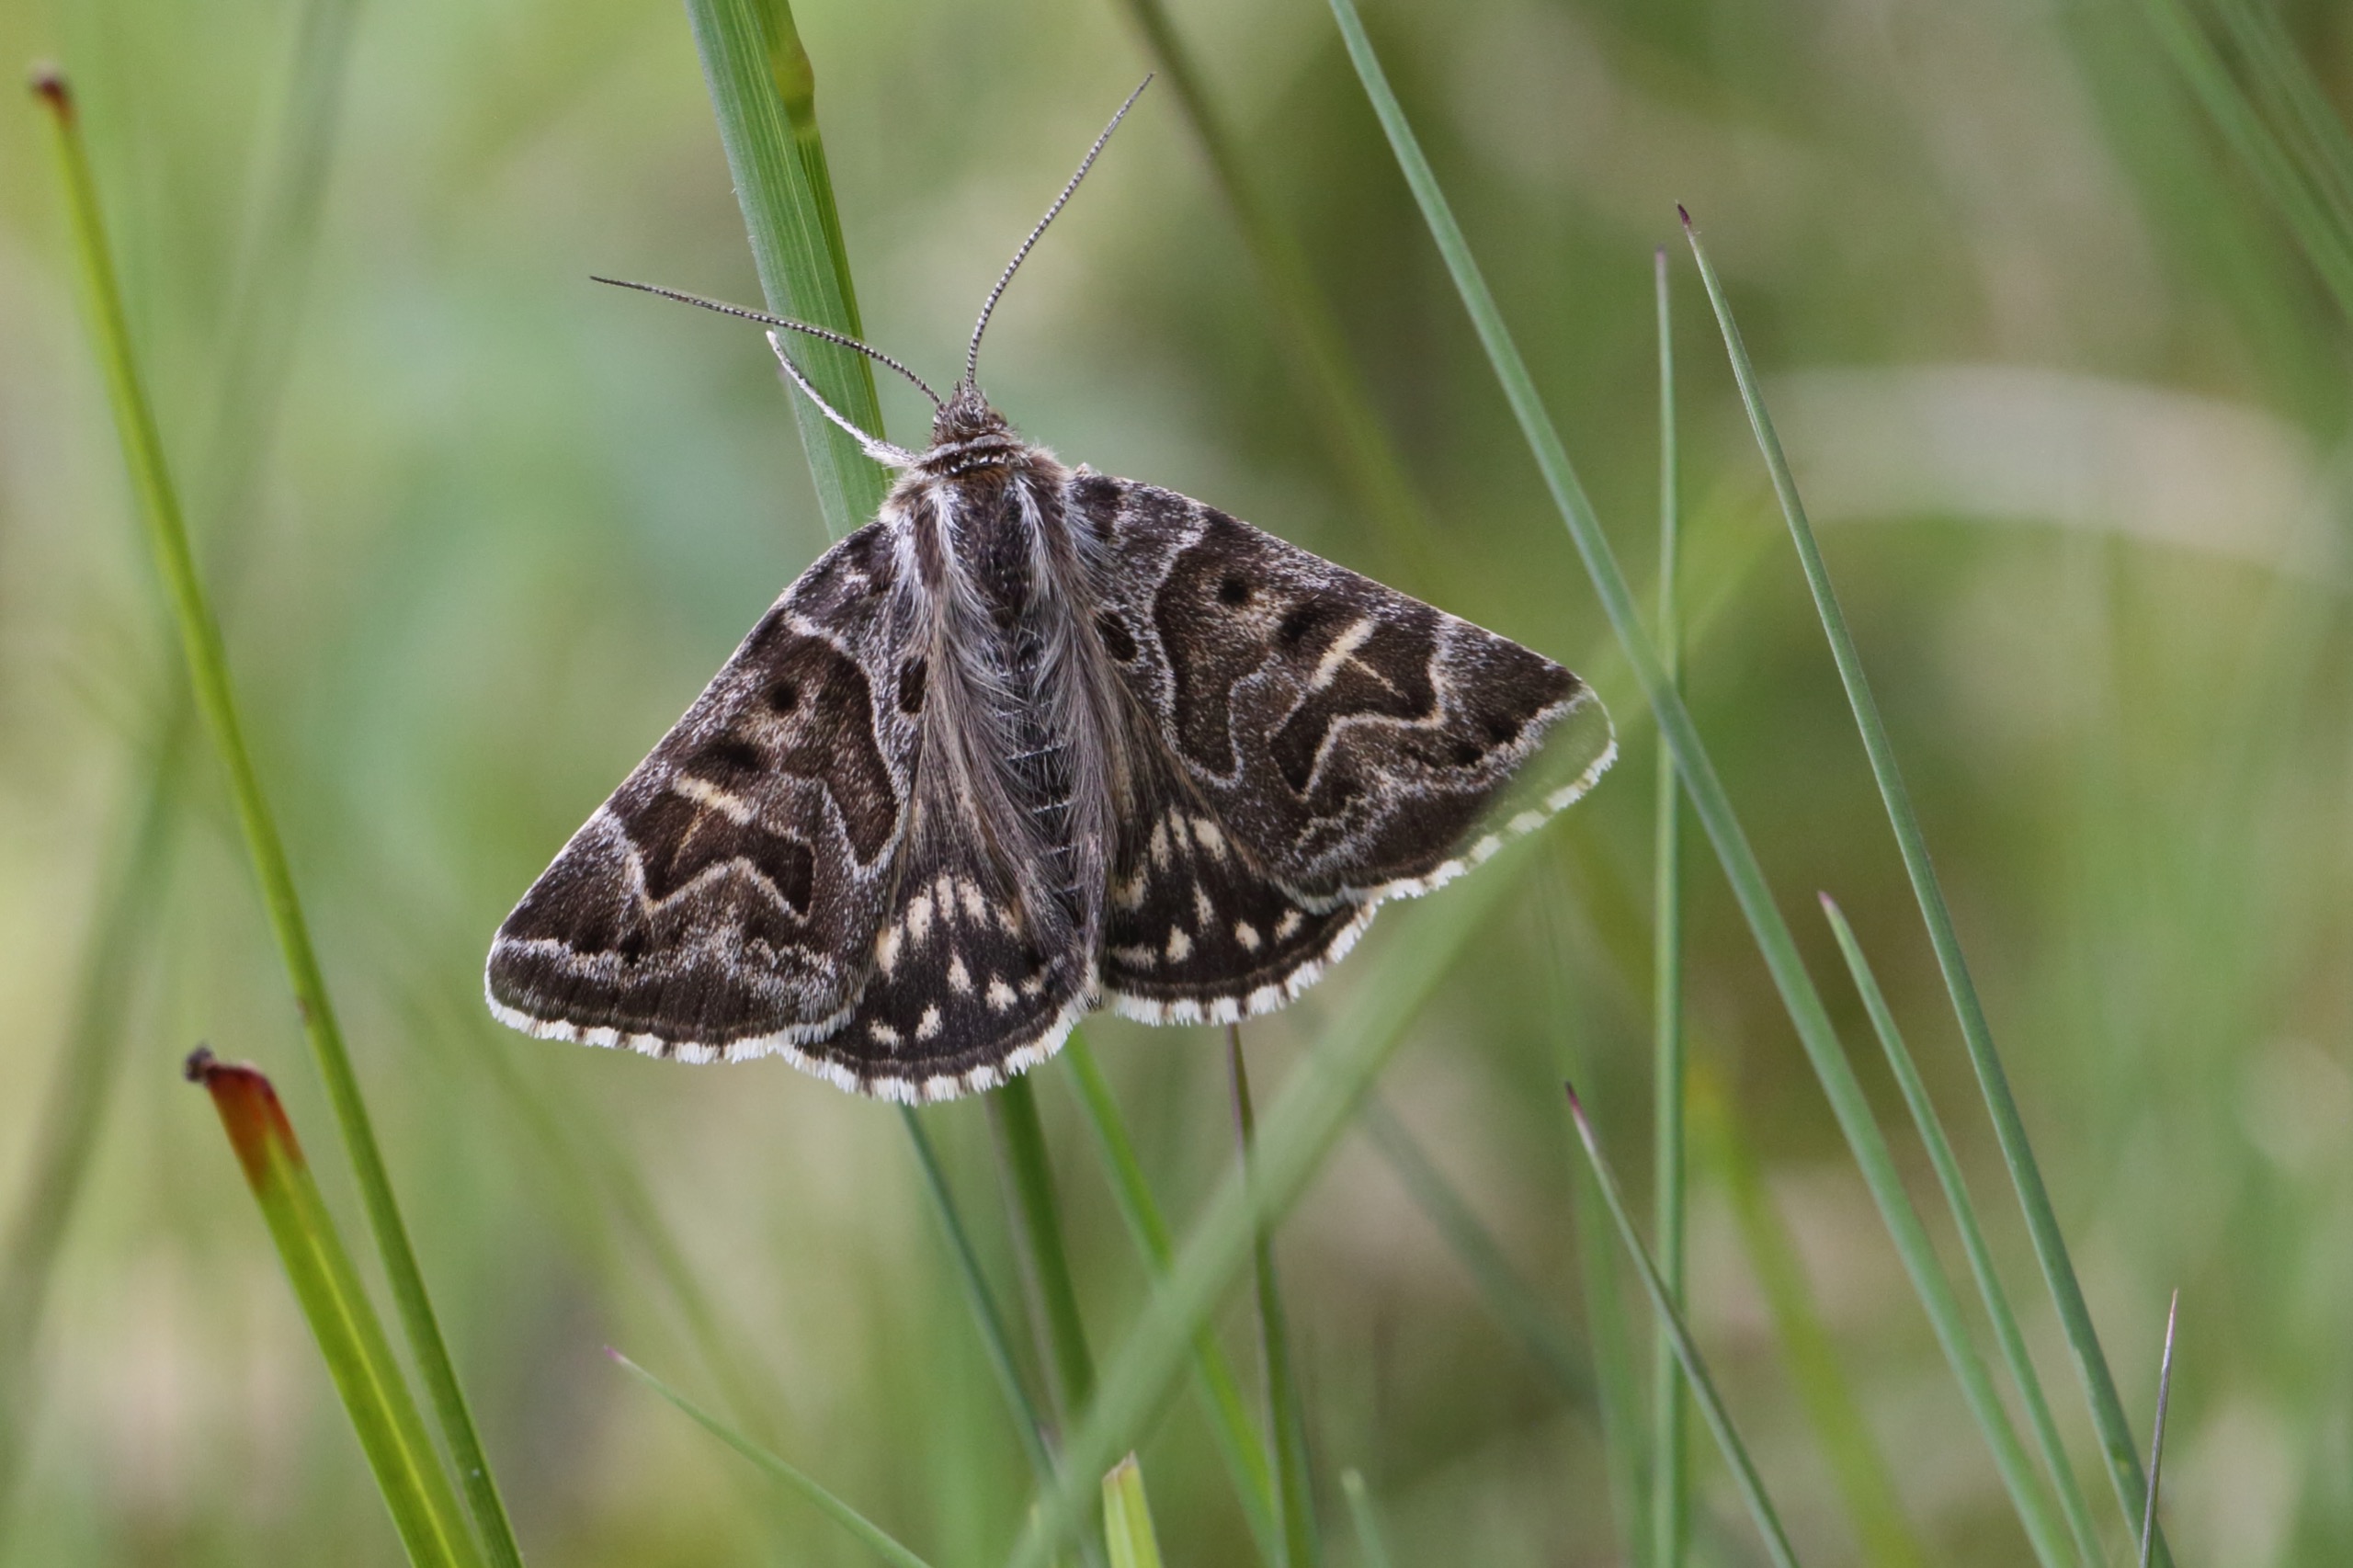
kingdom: Animalia
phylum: Arthropoda
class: Insecta
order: Lepidoptera
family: Erebidae
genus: Callistege
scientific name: Callistege mi
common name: Marmoreret kløverugle
